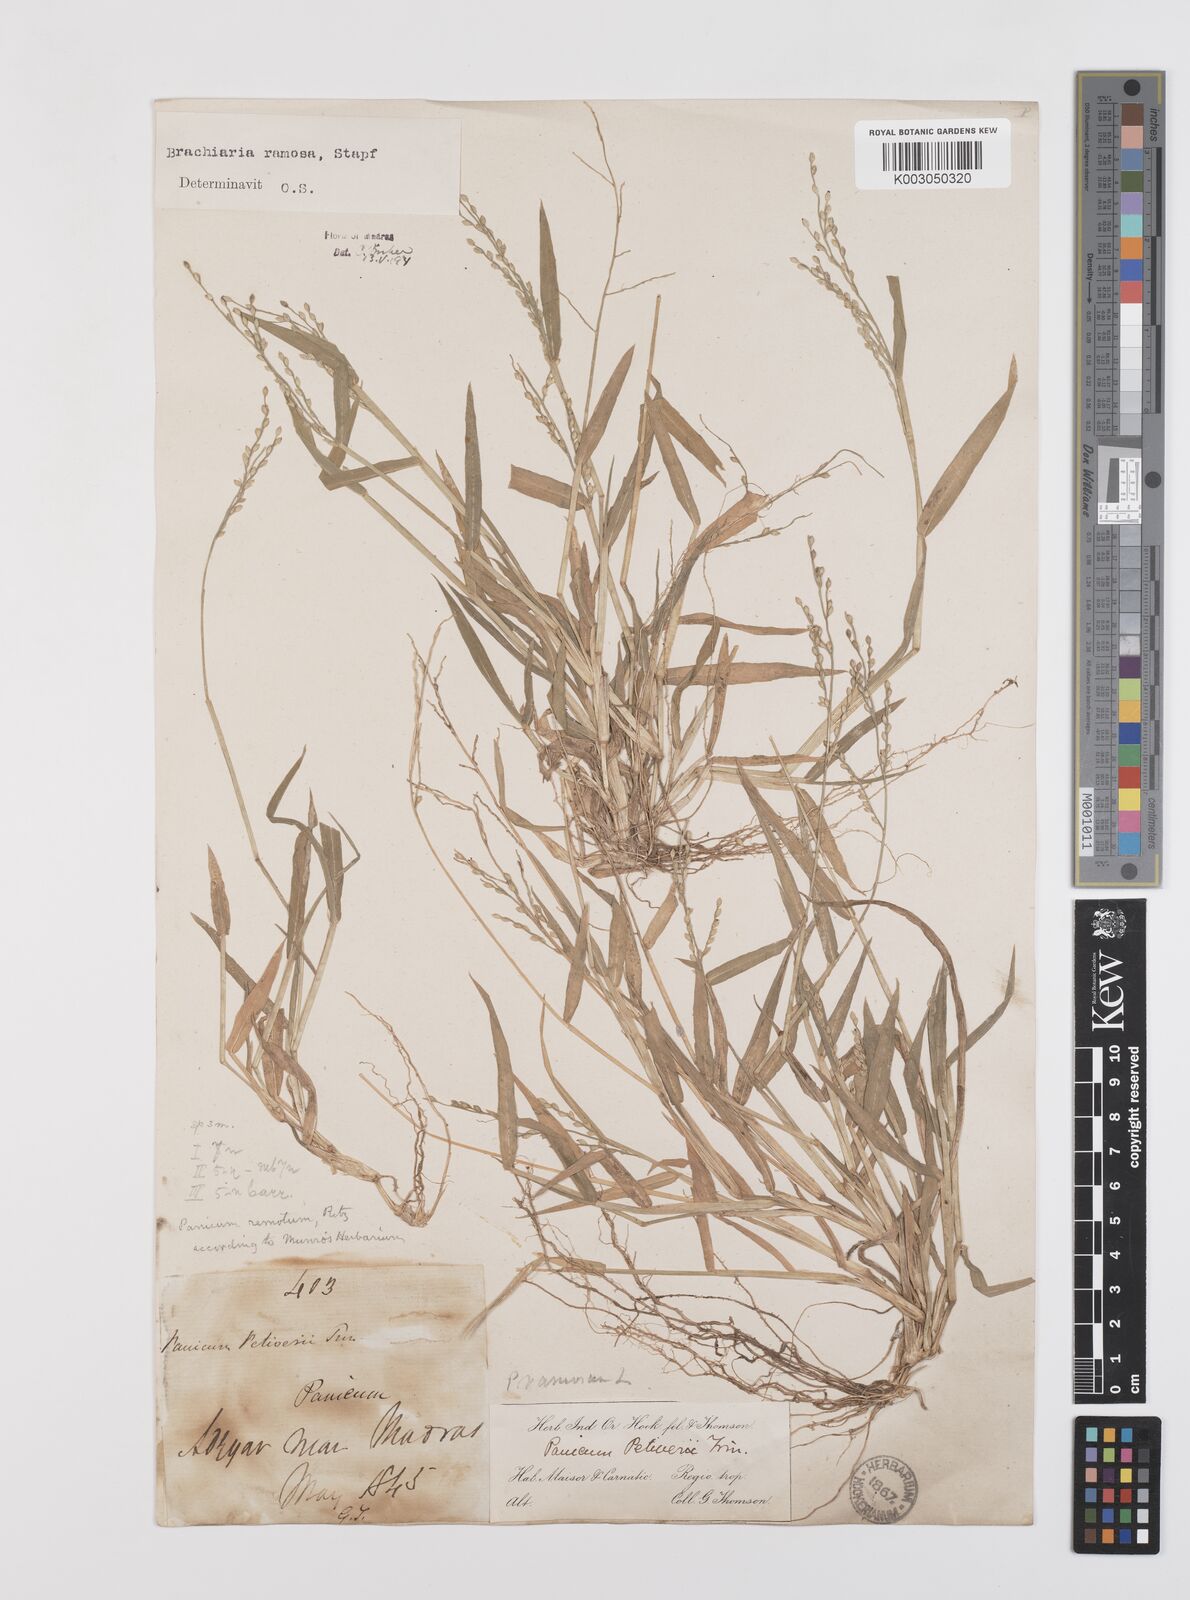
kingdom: Plantae
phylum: Tracheophyta
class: Liliopsida
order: Poales
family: Poaceae
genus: Urochloa
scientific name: Urochloa ramosa
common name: Browntop millet
